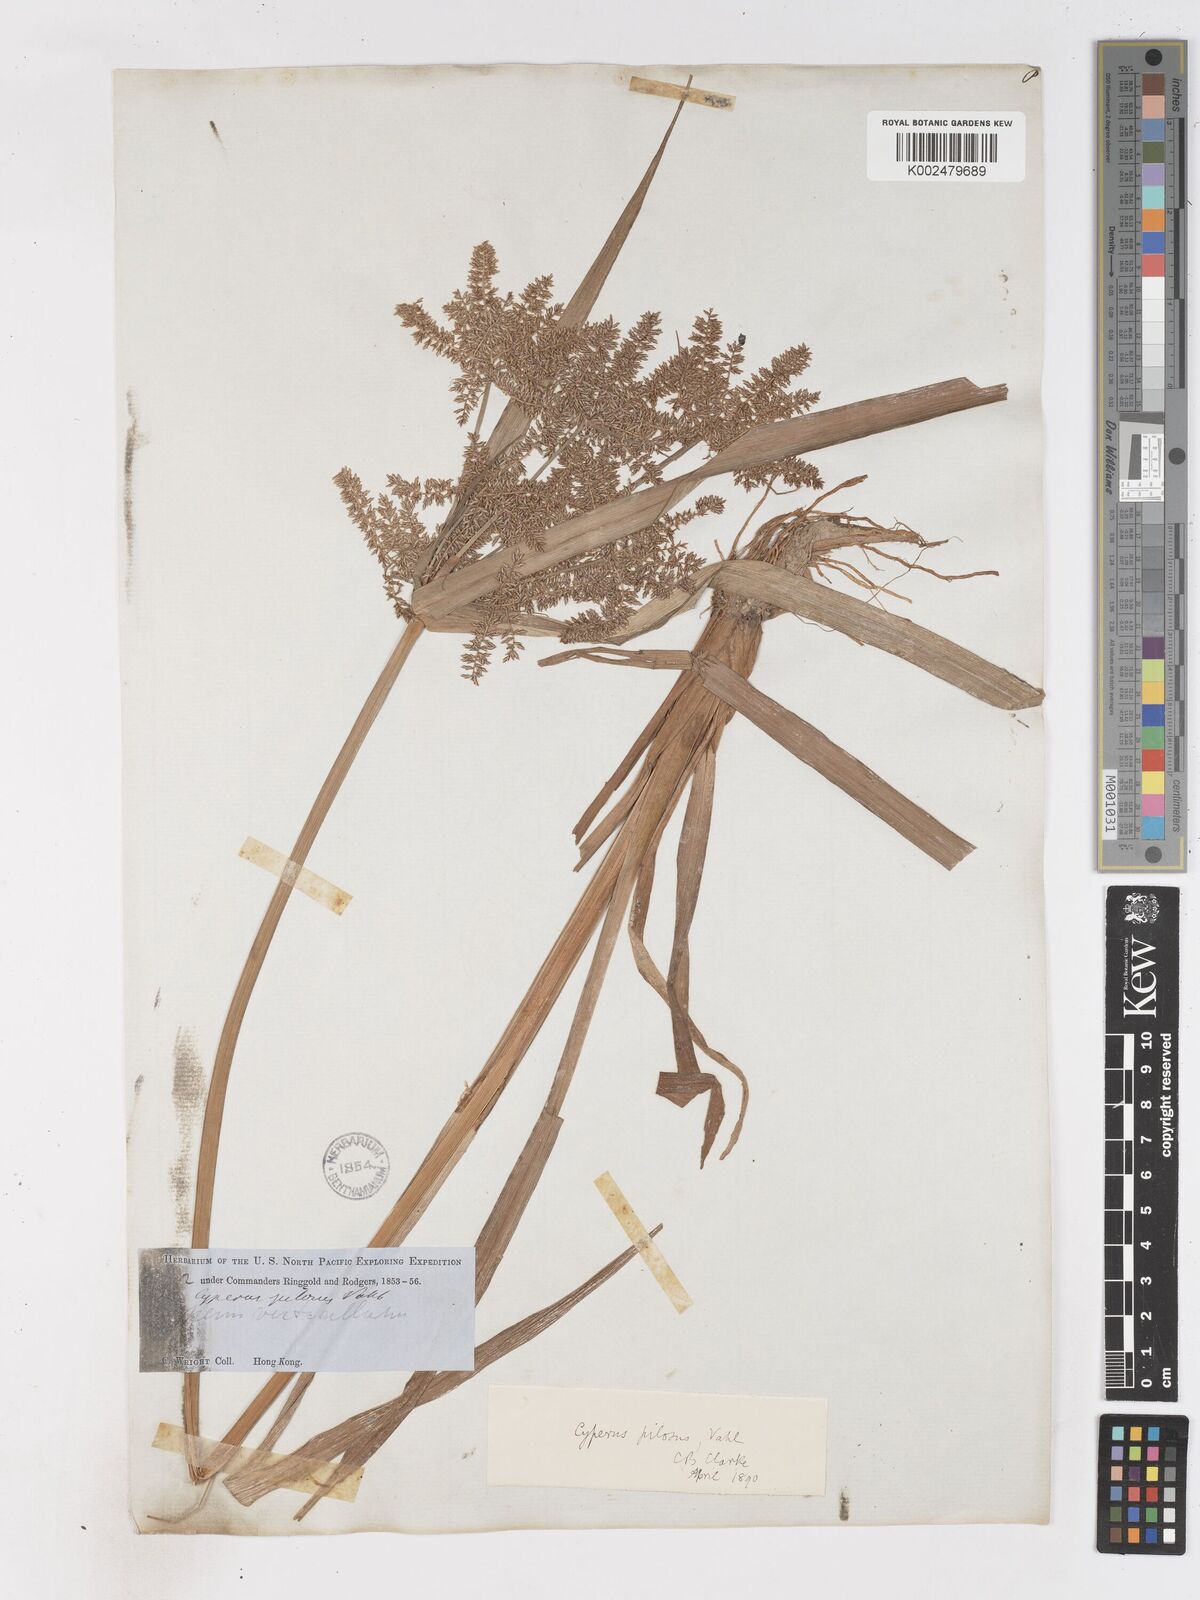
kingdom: Plantae
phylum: Tracheophyta
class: Liliopsida
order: Poales
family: Cyperaceae
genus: Cyperus
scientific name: Cyperus pilosus
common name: Fuzzy flatsedge
